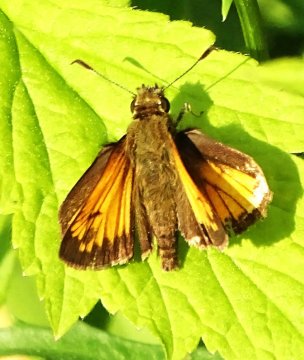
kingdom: Animalia
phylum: Arthropoda
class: Insecta
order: Lepidoptera
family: Hesperiidae
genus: Lon
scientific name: Lon hobomok
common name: Hobomok Skipper
